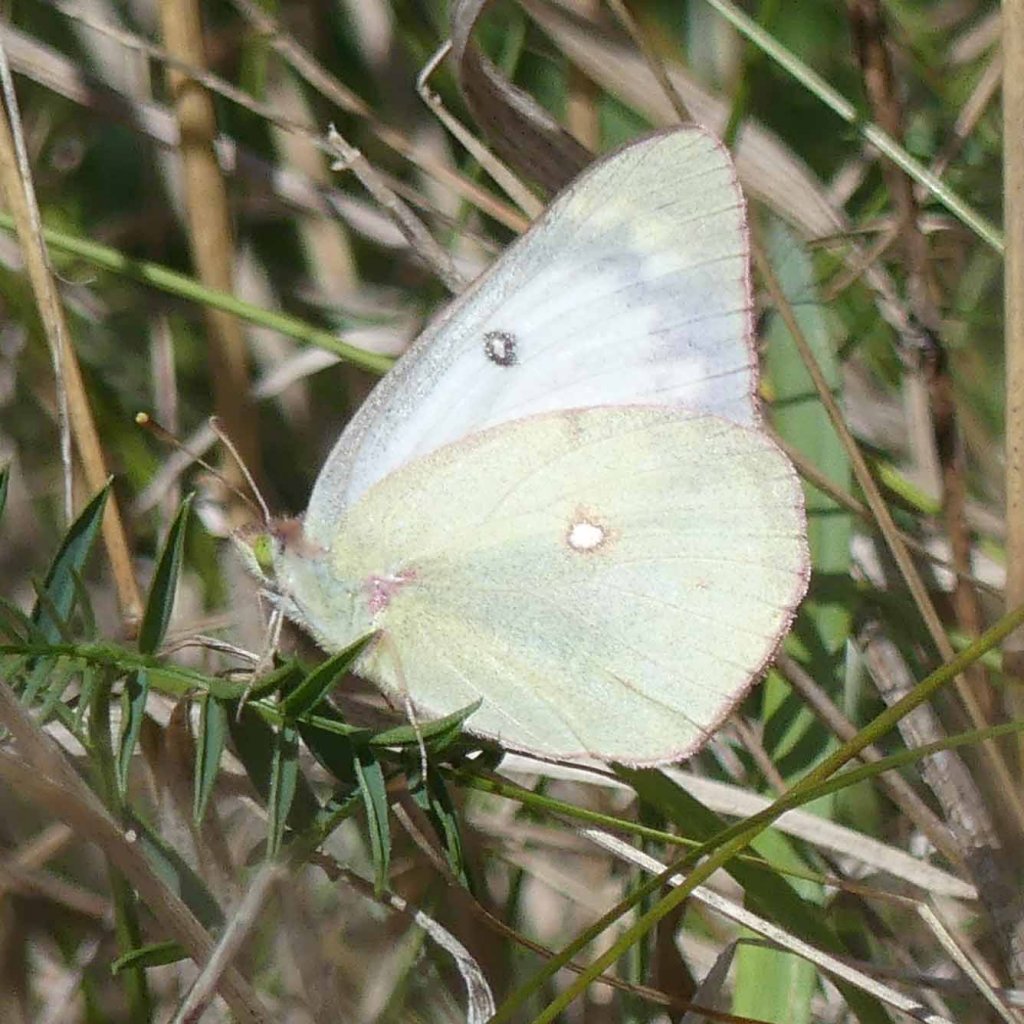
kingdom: Animalia
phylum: Arthropoda
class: Insecta
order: Lepidoptera
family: Pieridae
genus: Colias
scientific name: Colias philodice
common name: Clouded Sulphur
